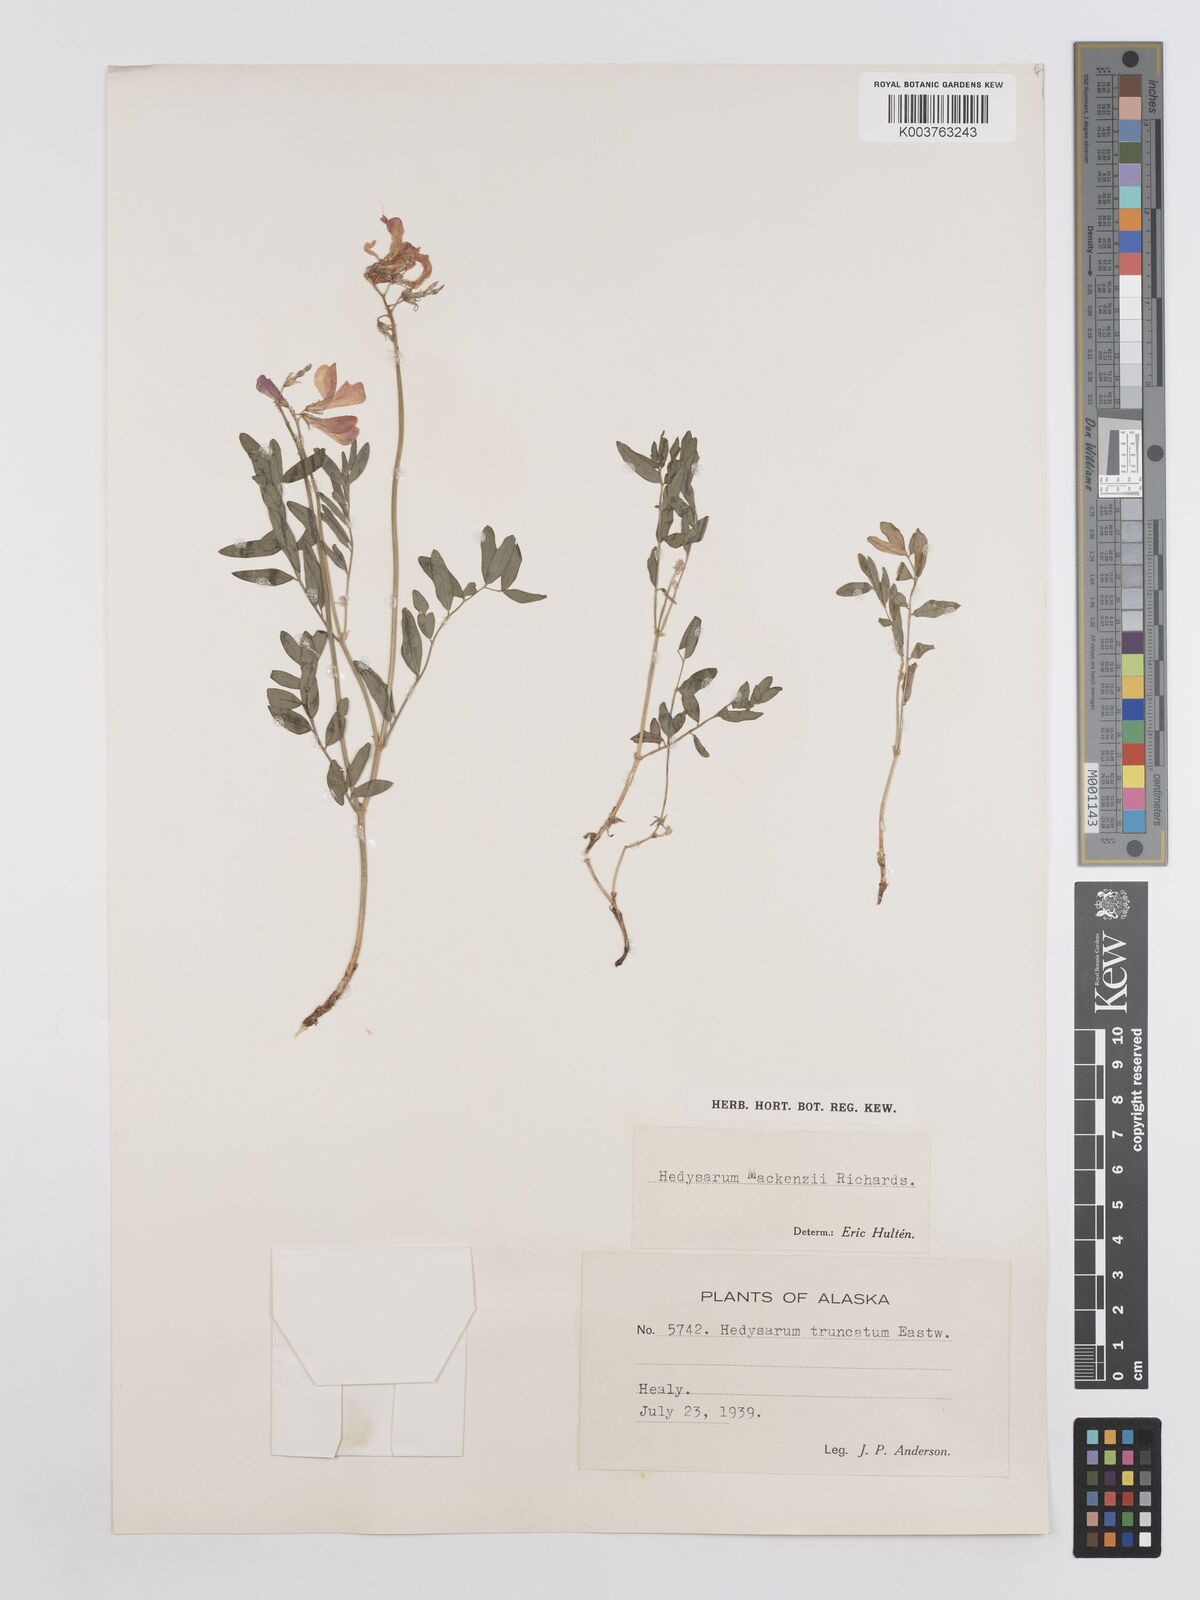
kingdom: Plantae
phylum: Tracheophyta
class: Magnoliopsida
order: Fabales
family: Fabaceae
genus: Hedysarum
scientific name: Hedysarum boreale
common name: Northern sweet-vetch
